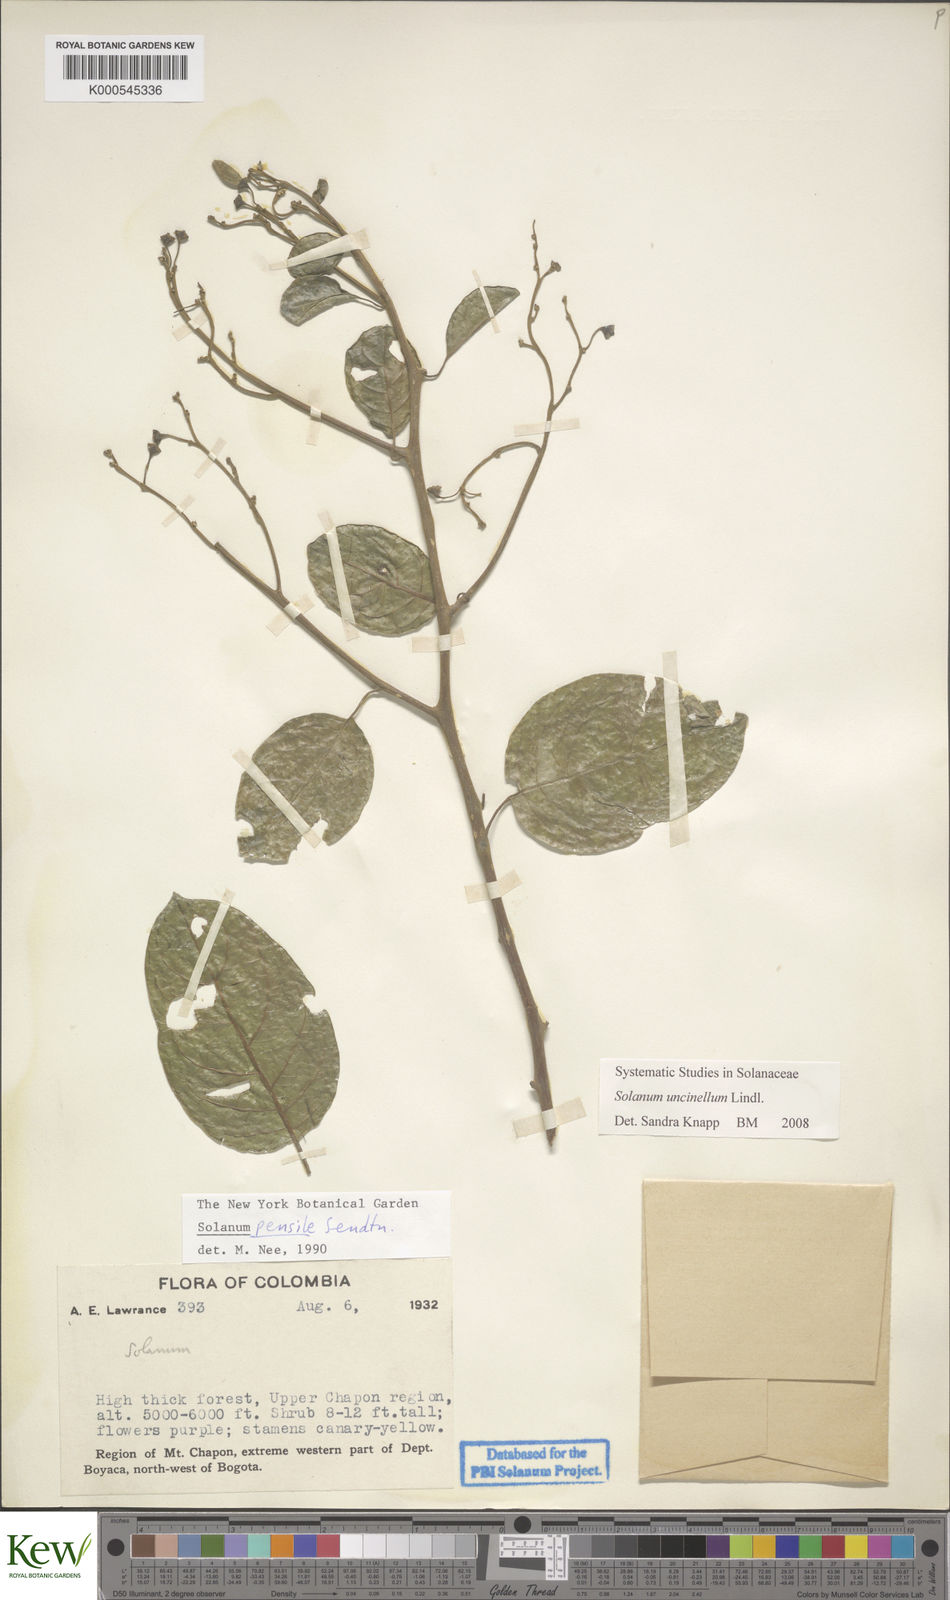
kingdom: Plantae
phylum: Tracheophyta
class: Magnoliopsida
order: Solanales
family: Solanaceae
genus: Solanum
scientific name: Solanum uncinellum
